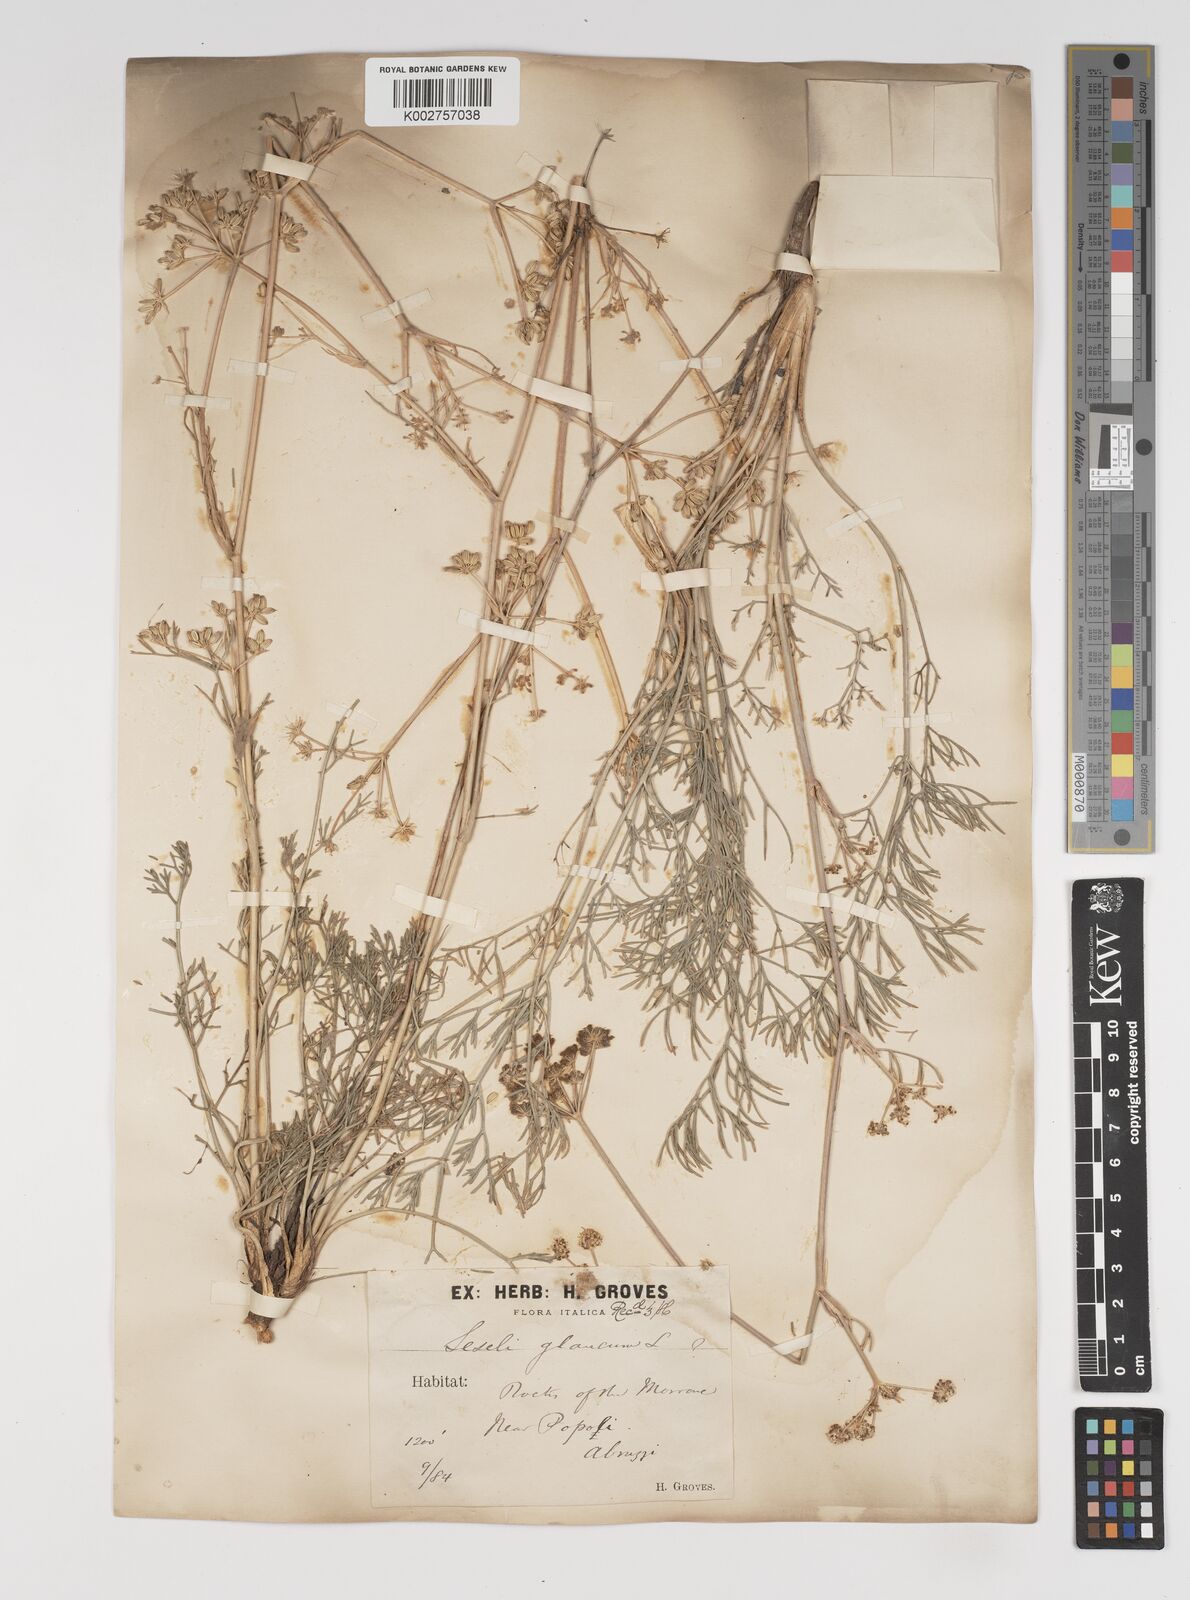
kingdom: Plantae
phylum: Tracheophyta
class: Magnoliopsida
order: Apiales
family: Apiaceae
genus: Seseli
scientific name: Seseli montanum
